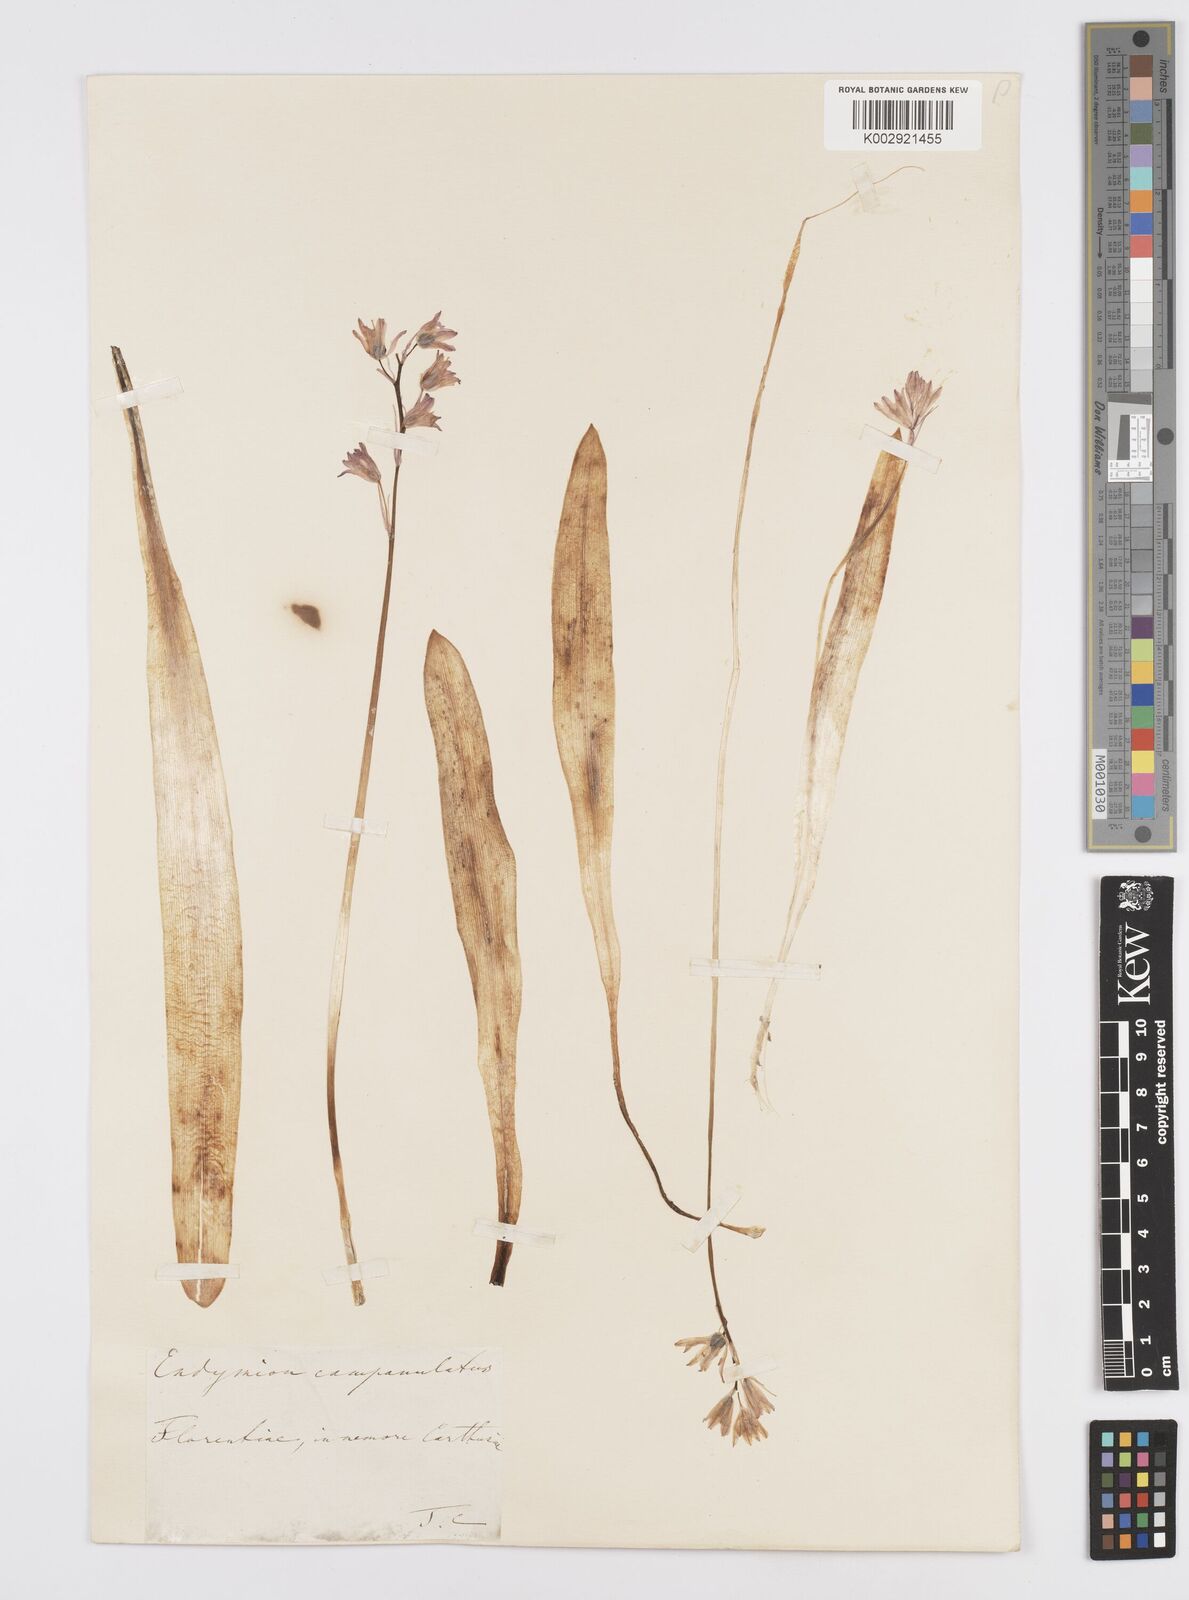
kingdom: Plantae
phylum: Tracheophyta
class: Liliopsida
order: Asparagales
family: Asparagaceae
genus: Hyacinthoides
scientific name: Hyacinthoides hispanica
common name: Spanish bluebell
